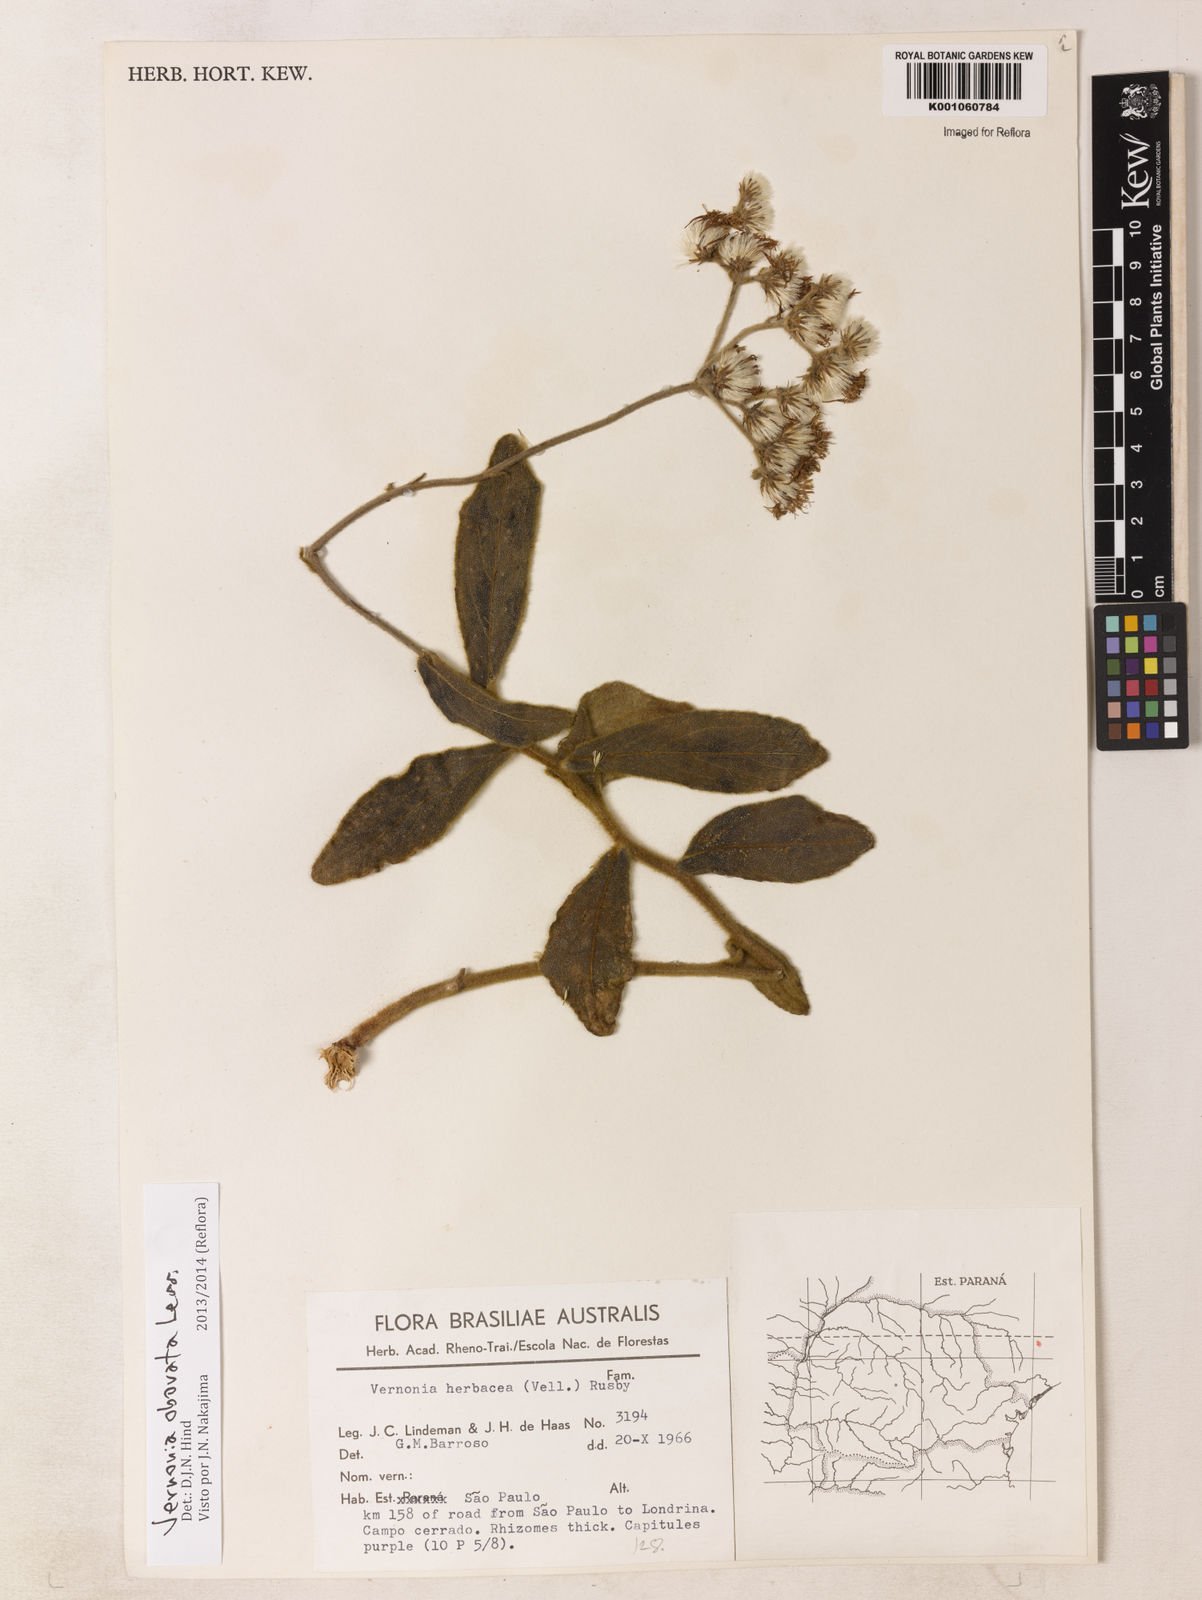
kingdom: Plantae
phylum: Tracheophyta
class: Magnoliopsida
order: Asterales
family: Asteraceae
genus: Chrysolaena
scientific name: Chrysolaena obovata
